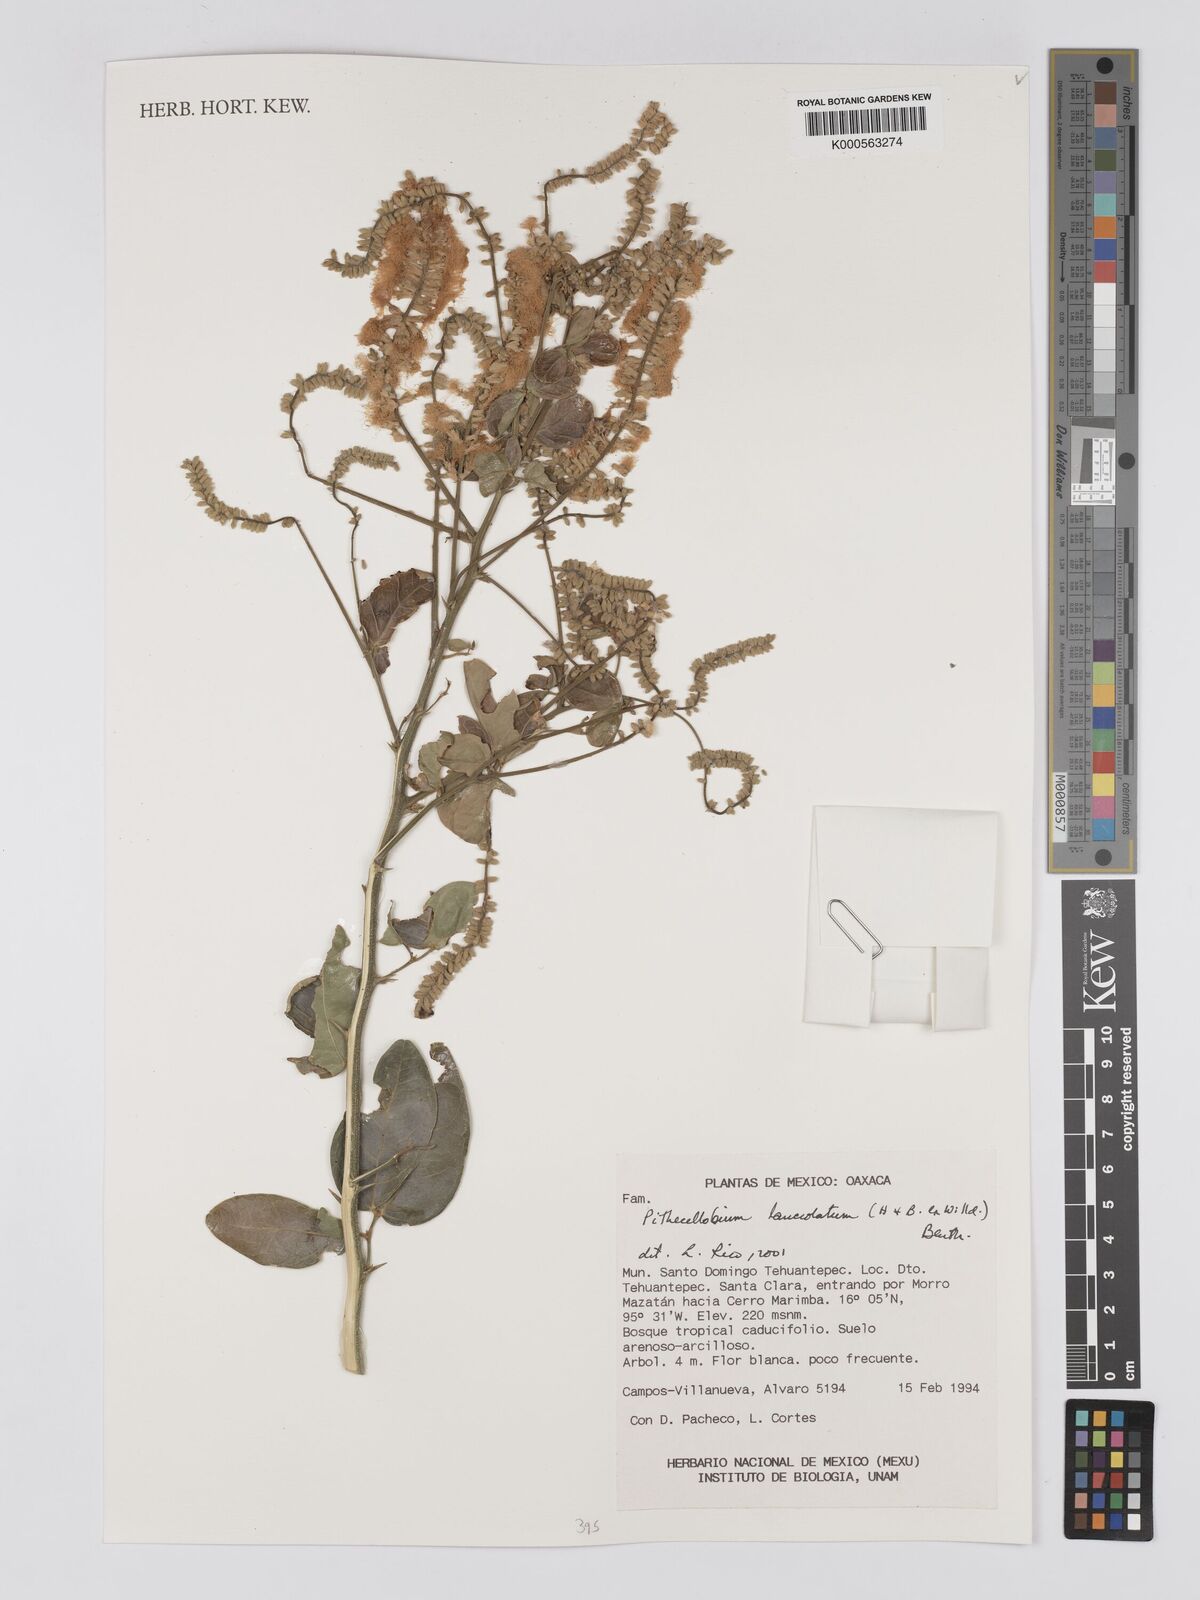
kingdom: Plantae
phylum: Tracheophyta
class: Magnoliopsida
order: Fabales
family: Fabaceae
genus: Pithecellobium
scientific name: Pithecellobium lanceolatum
